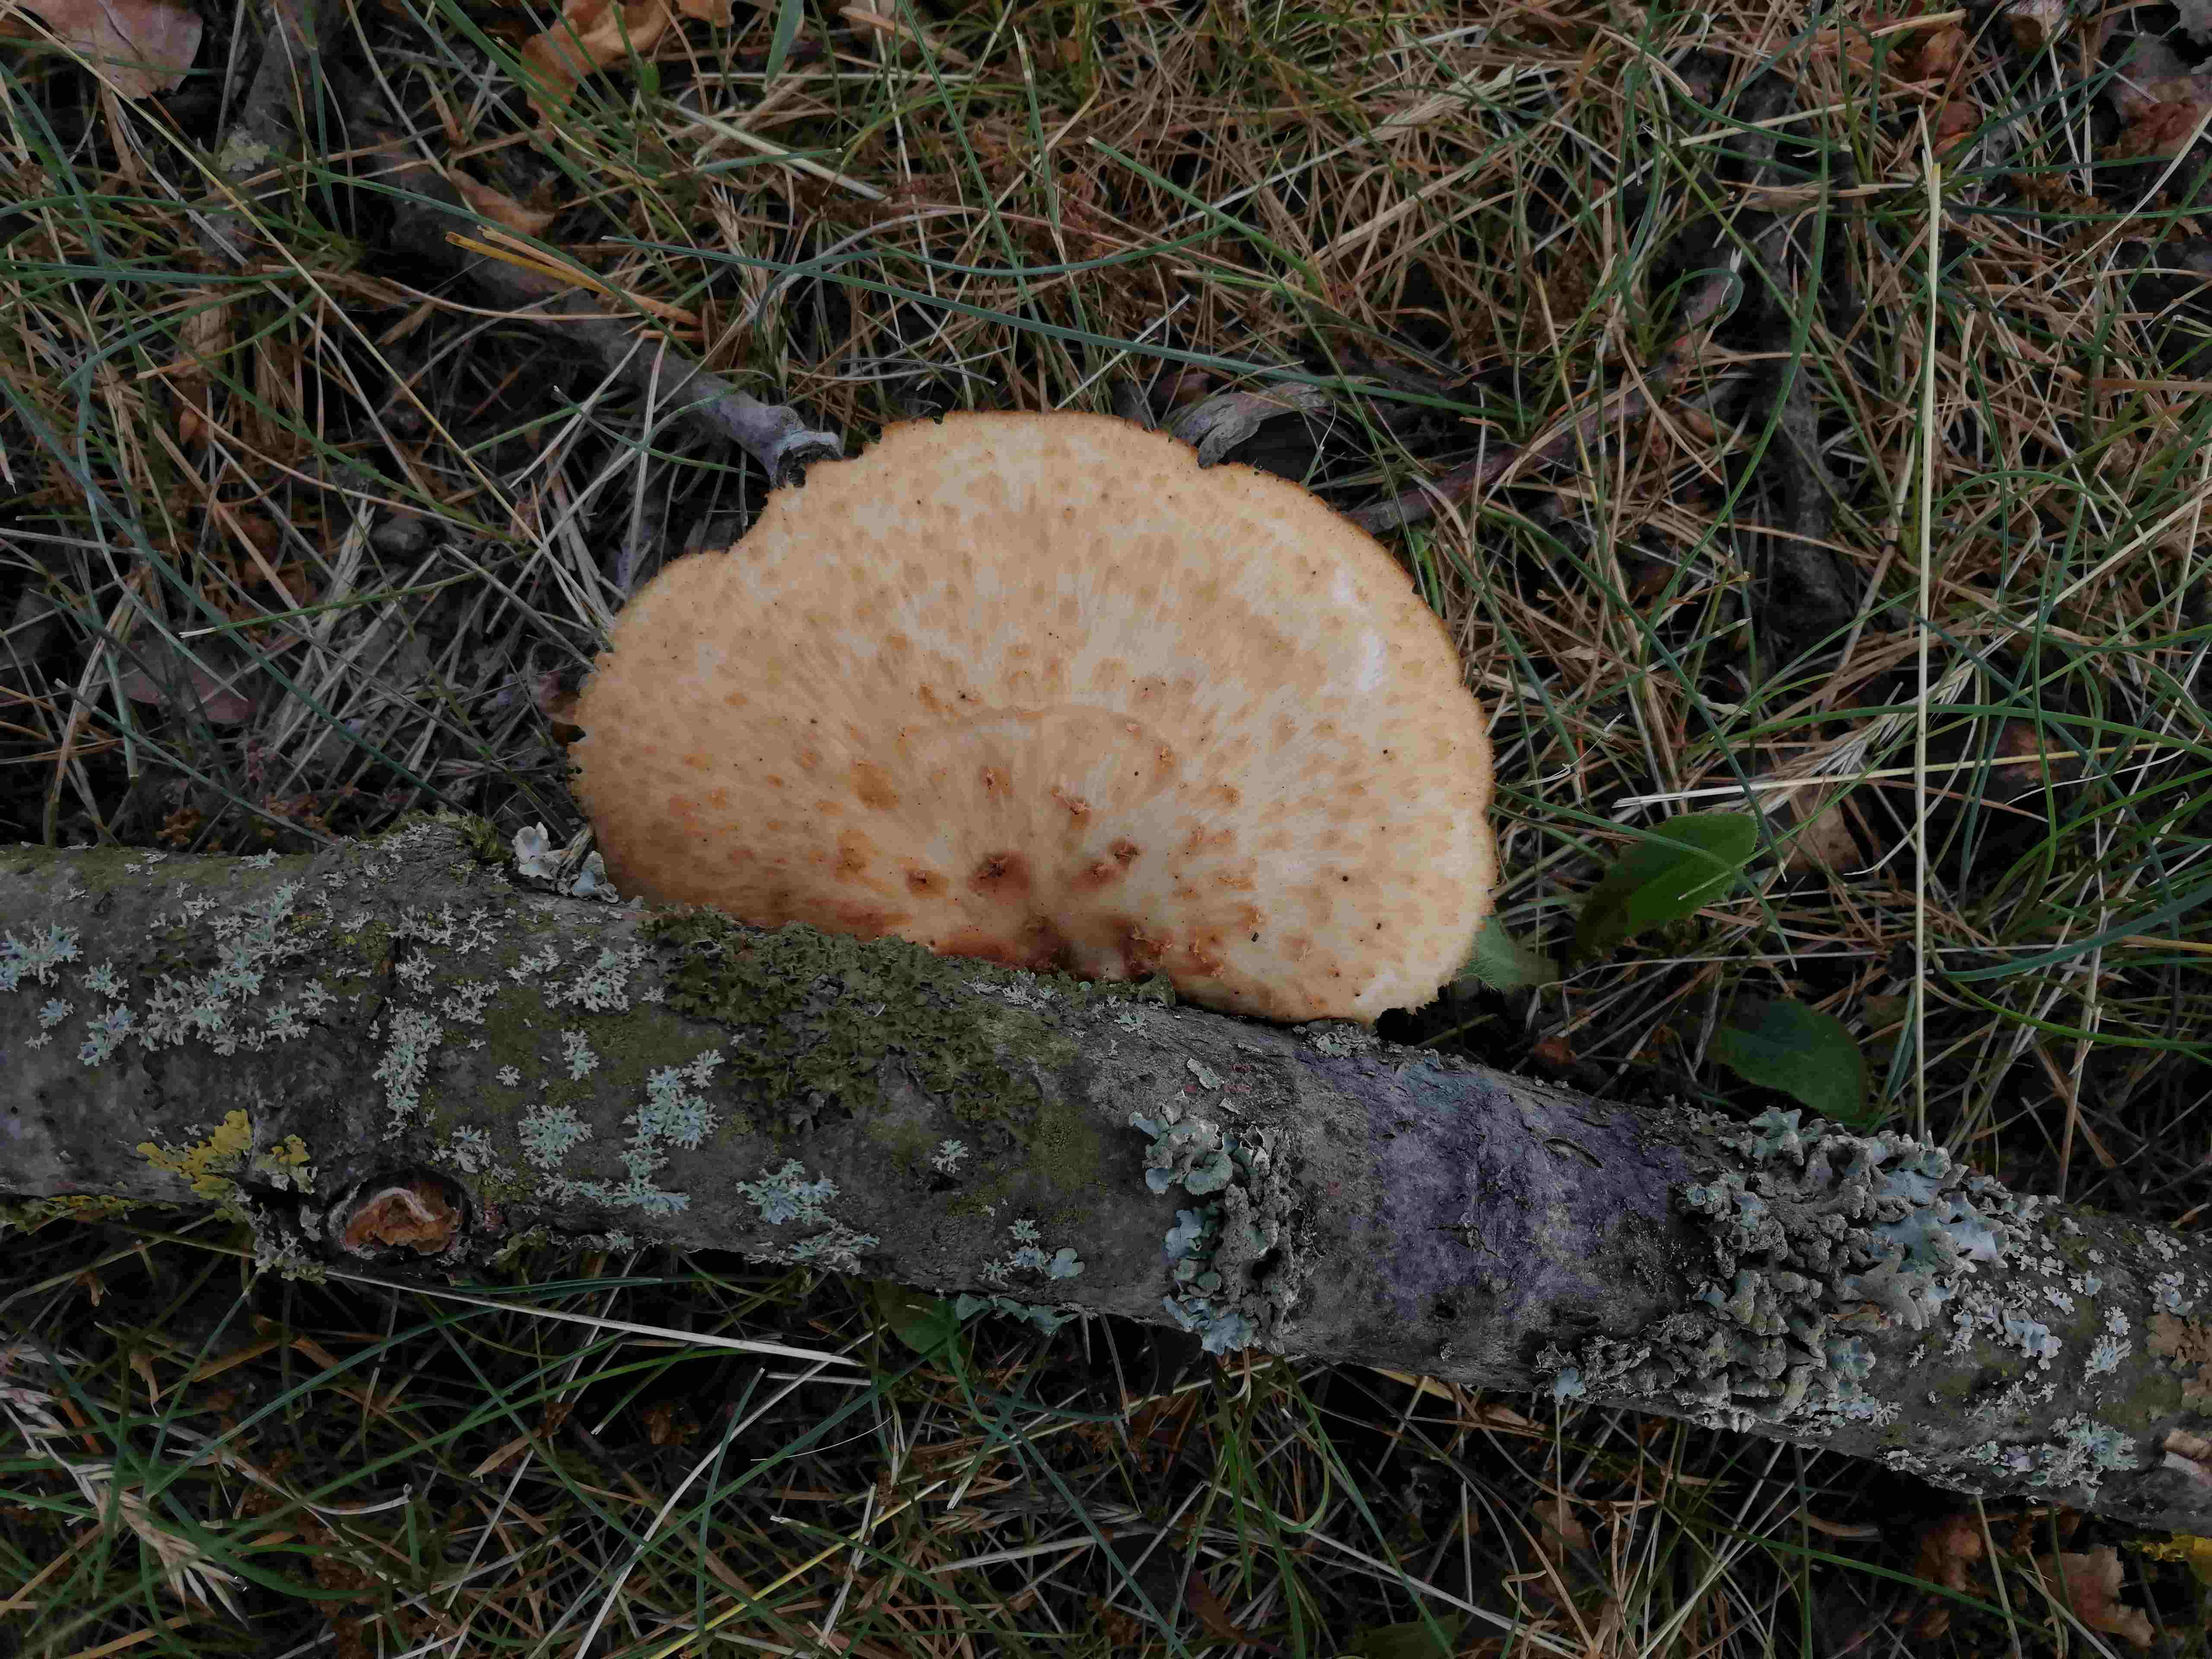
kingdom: Fungi
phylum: Basidiomycota
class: Agaricomycetes
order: Polyporales
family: Polyporaceae
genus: Polyporus
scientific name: Polyporus tuberaster
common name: knoldet stilkporesvamp
